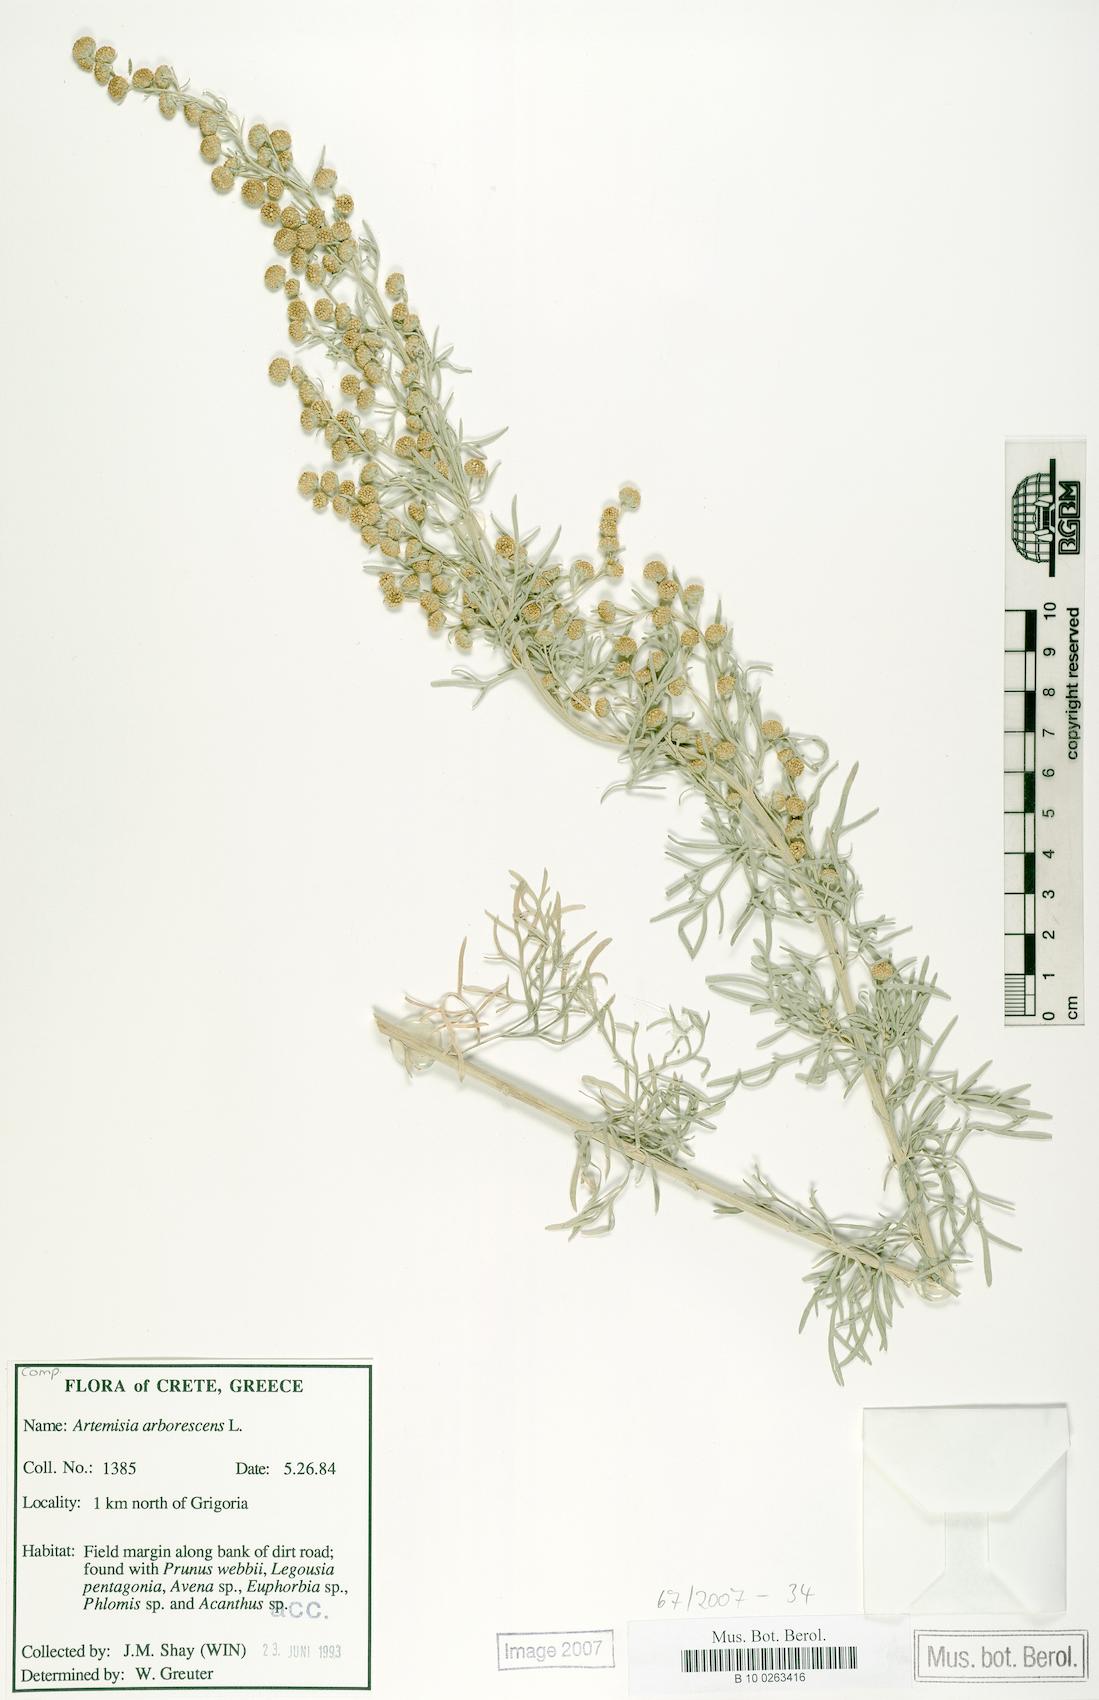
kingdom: Plantae
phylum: Tracheophyta
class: Magnoliopsida
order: Asterales
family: Asteraceae
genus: Artemisia
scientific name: Artemisia arborescens
